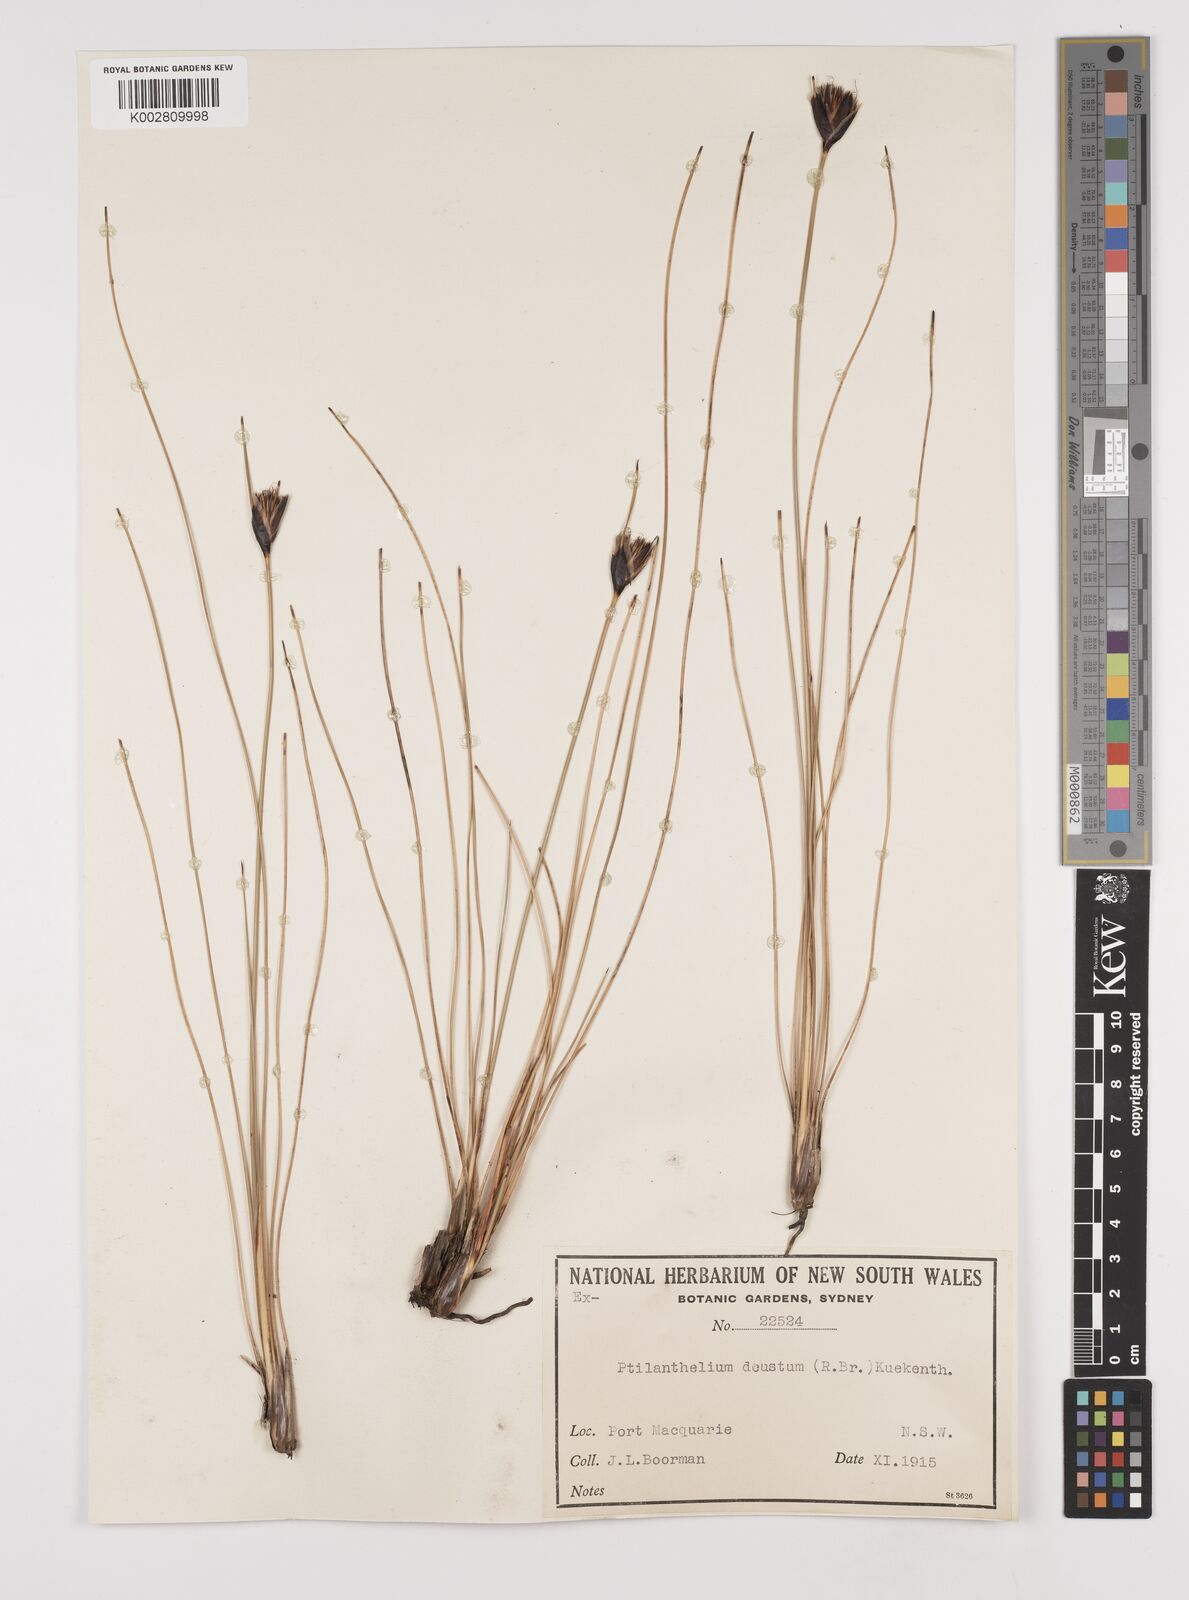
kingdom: Plantae
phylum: Tracheophyta
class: Liliopsida
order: Poales
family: Cyperaceae
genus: Ptilothrix
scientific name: Ptilothrix deusta
